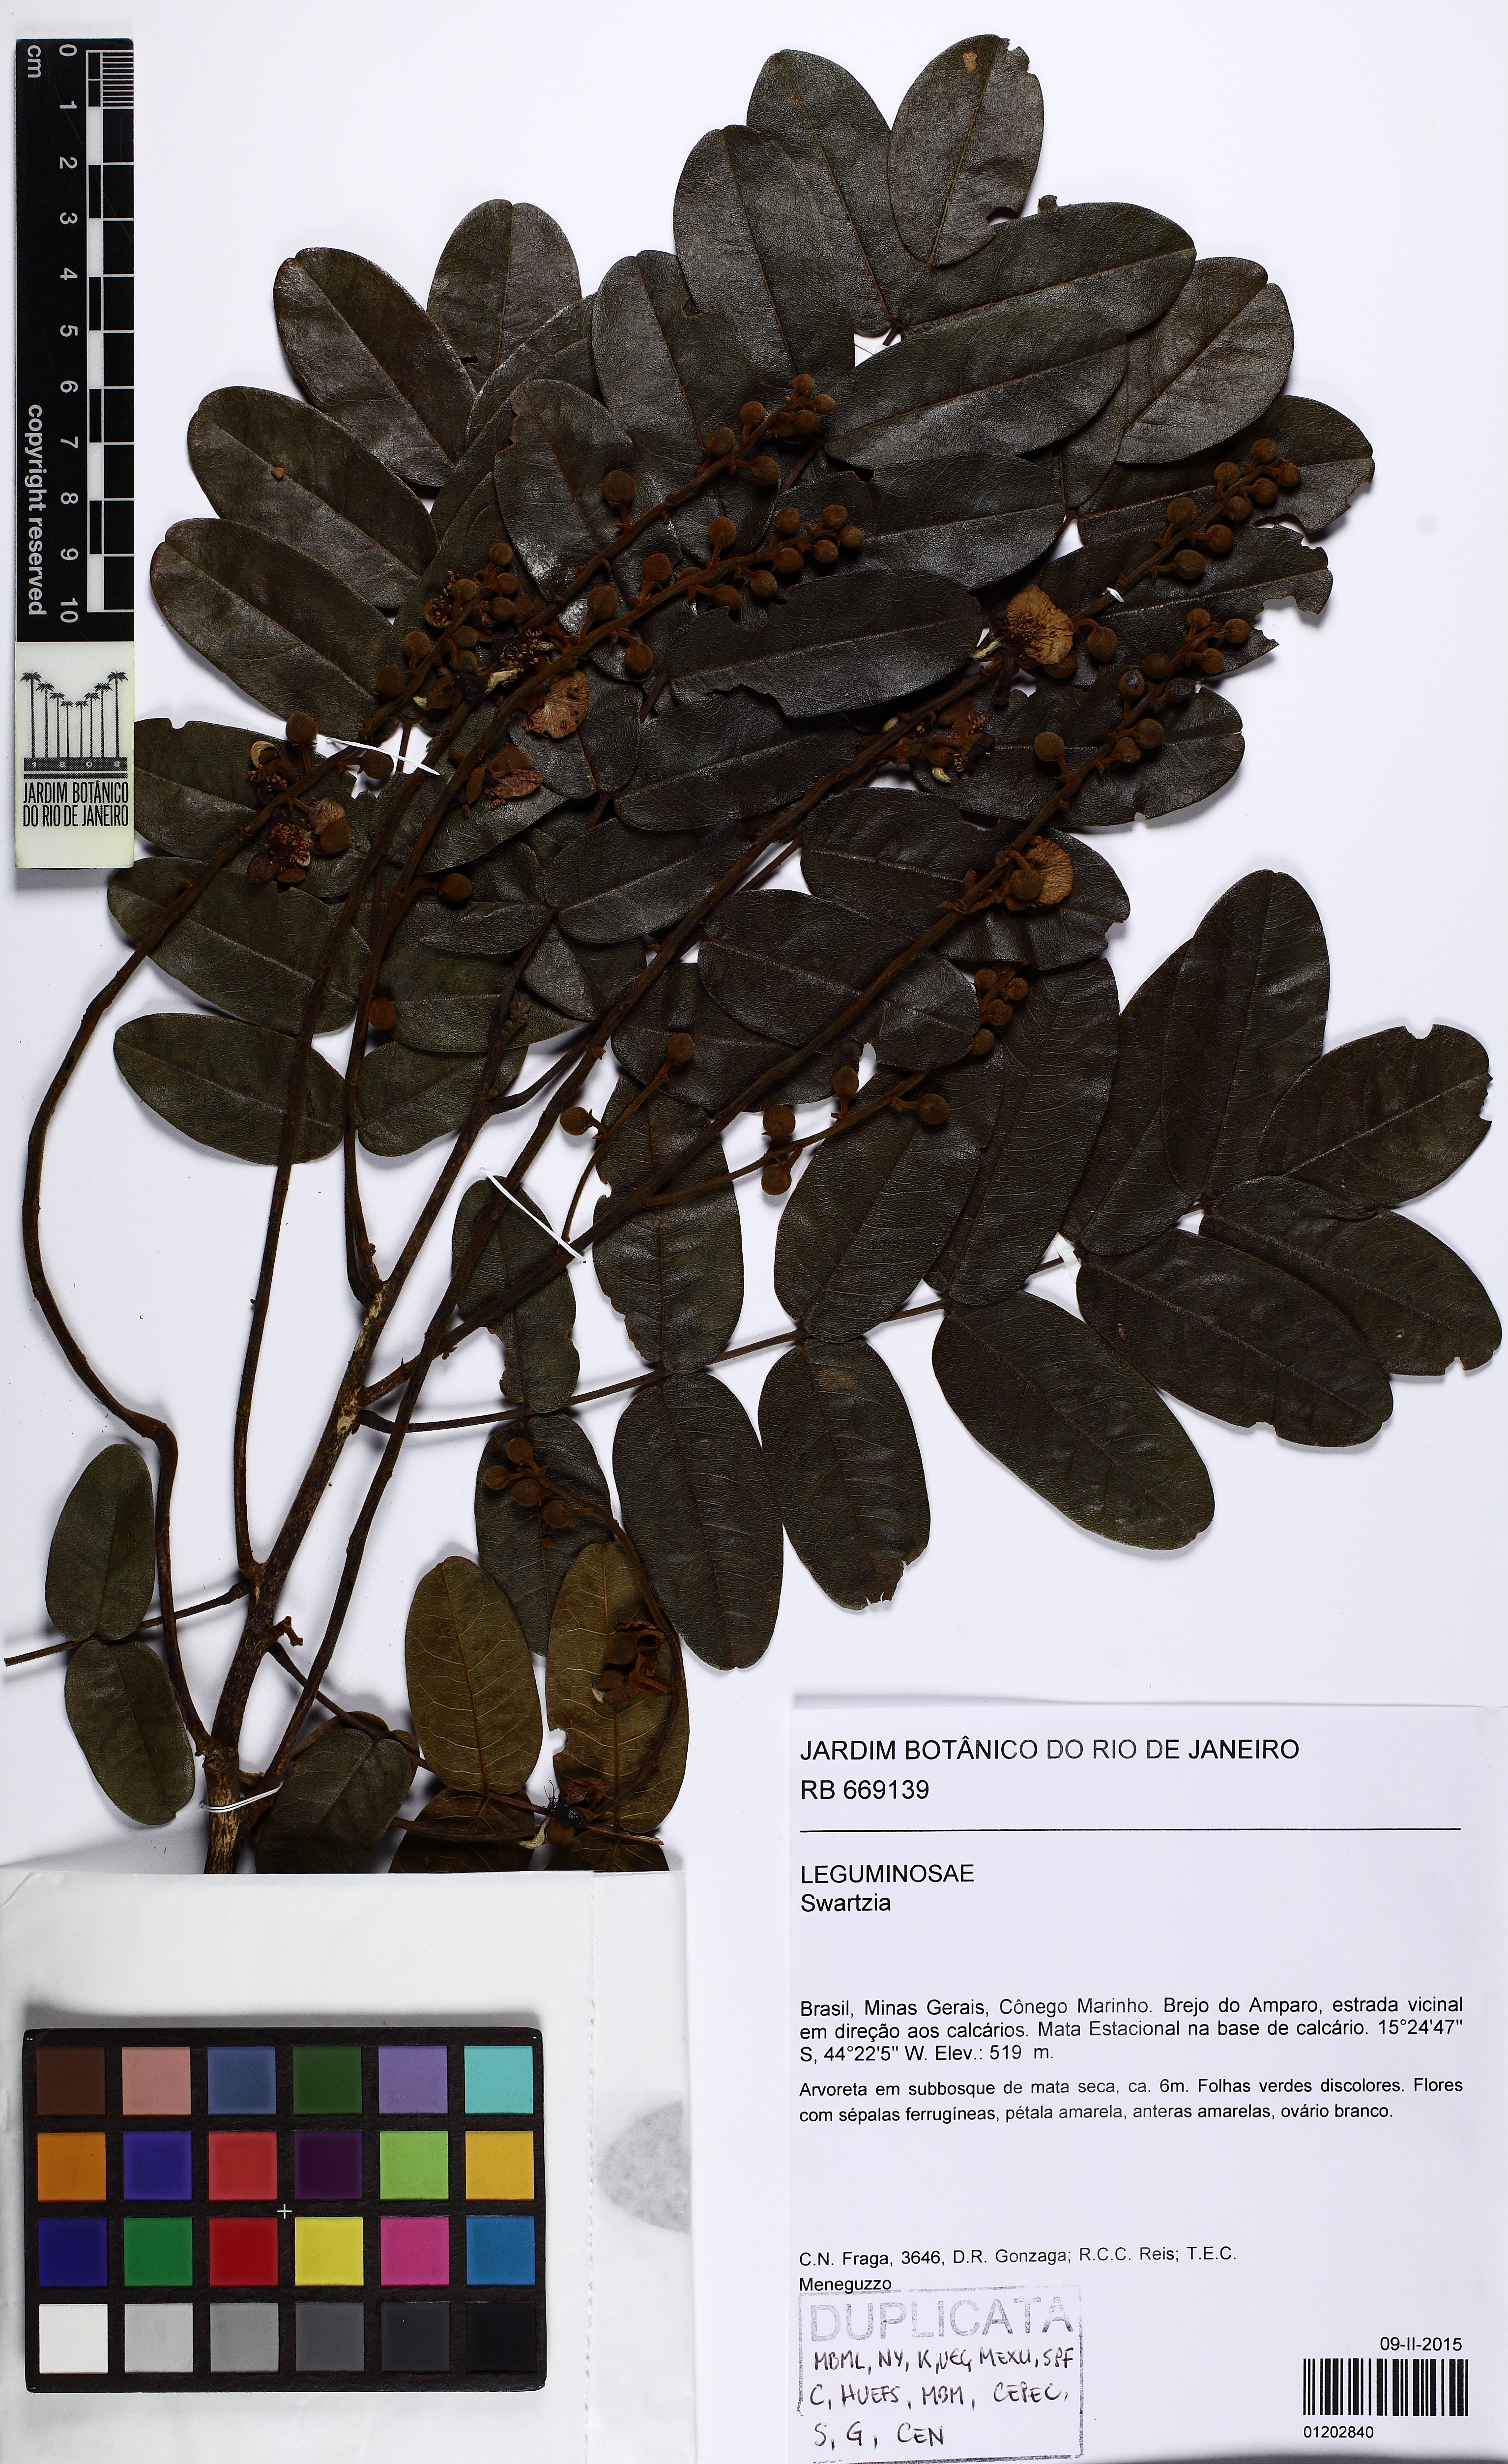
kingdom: Plantae
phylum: Tracheophyta
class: Magnoliopsida
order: Fabales
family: Fabaceae
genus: Swartzia
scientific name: Swartzia
